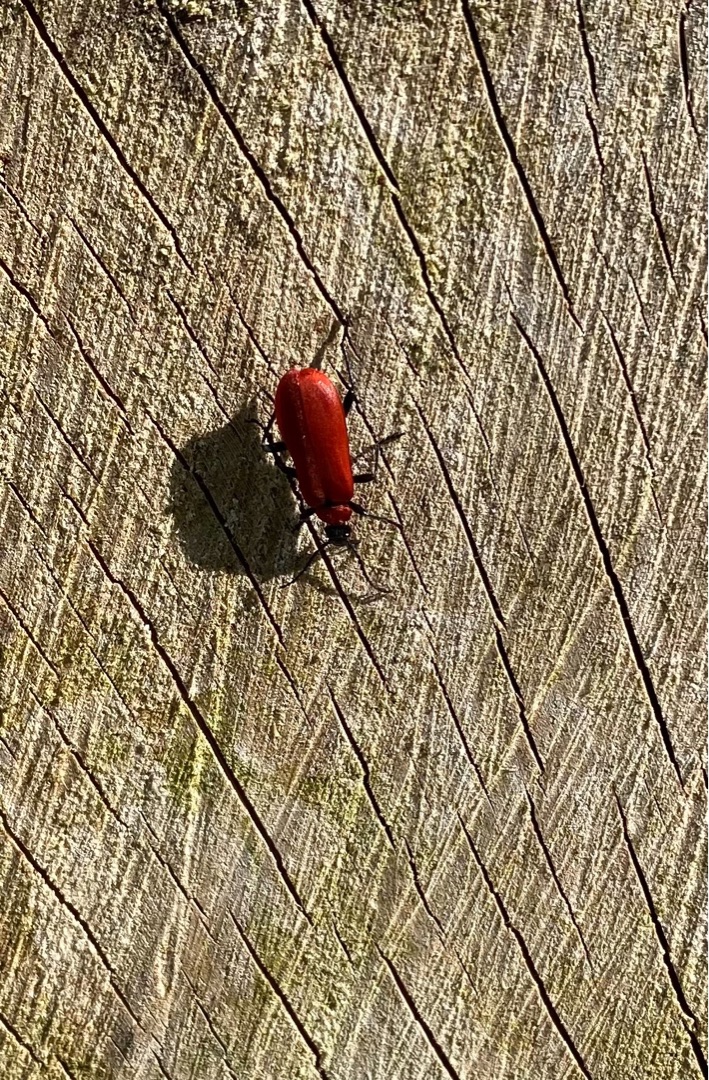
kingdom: Animalia
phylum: Arthropoda
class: Insecta
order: Coleoptera
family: Pyrochroidae
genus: Pyrochroa
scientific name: Pyrochroa coccinea
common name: Sorthovedet kardinalbille
